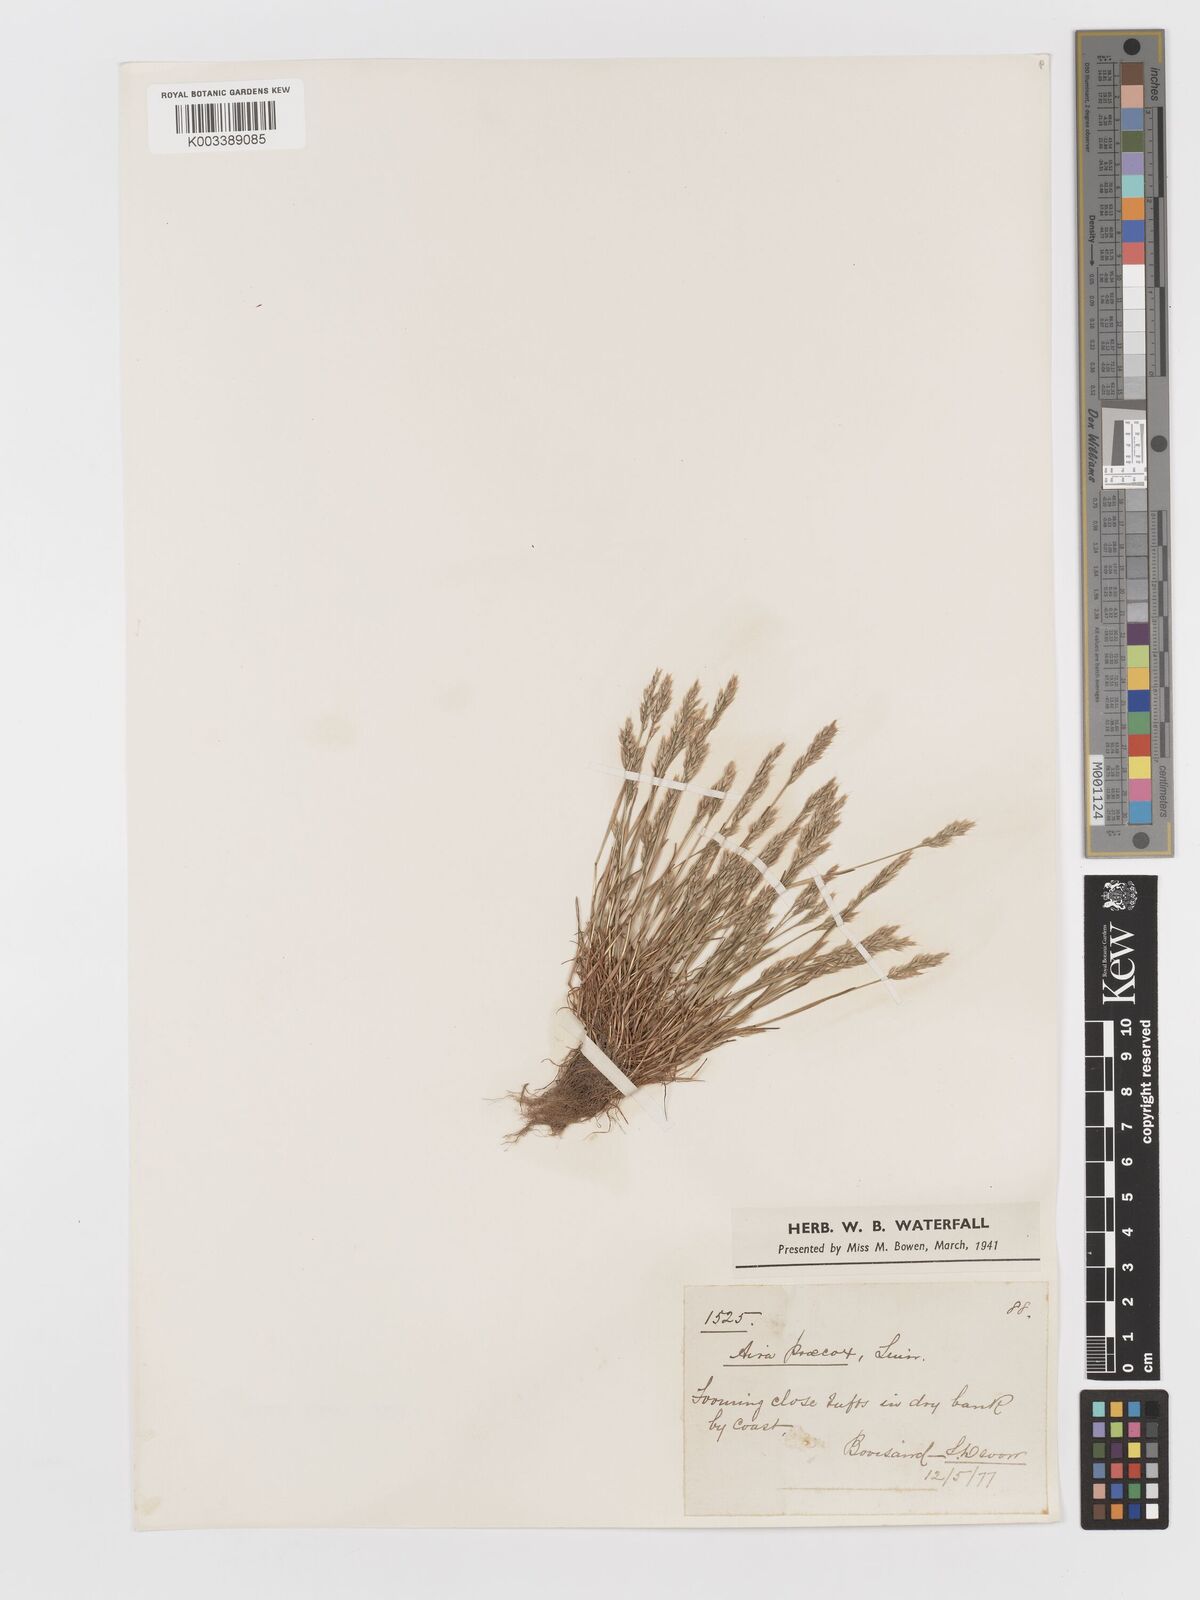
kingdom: Plantae
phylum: Tracheophyta
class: Liliopsida
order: Poales
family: Poaceae
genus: Aira
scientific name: Aira praecox
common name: Early hair-grass
